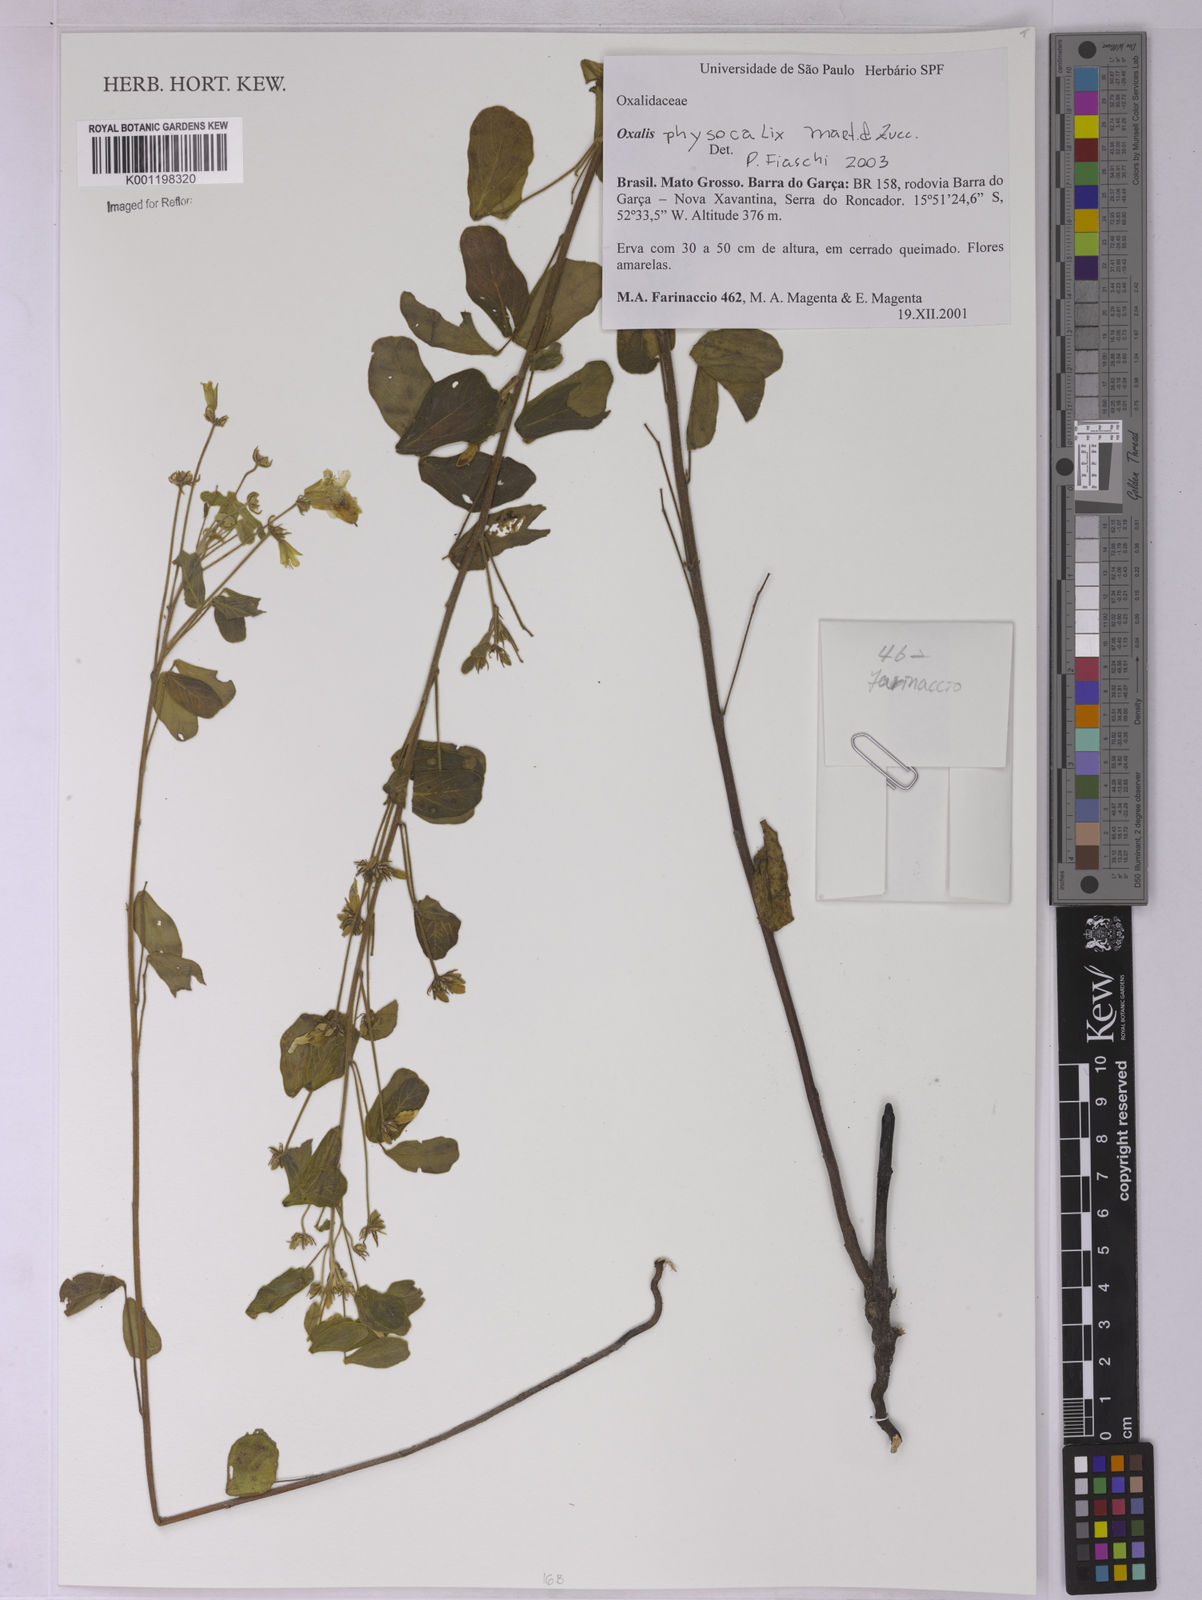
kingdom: Plantae
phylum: Tracheophyta
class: Magnoliopsida
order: Oxalidales
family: Oxalidaceae
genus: Oxalis
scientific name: Oxalis physocalyx
